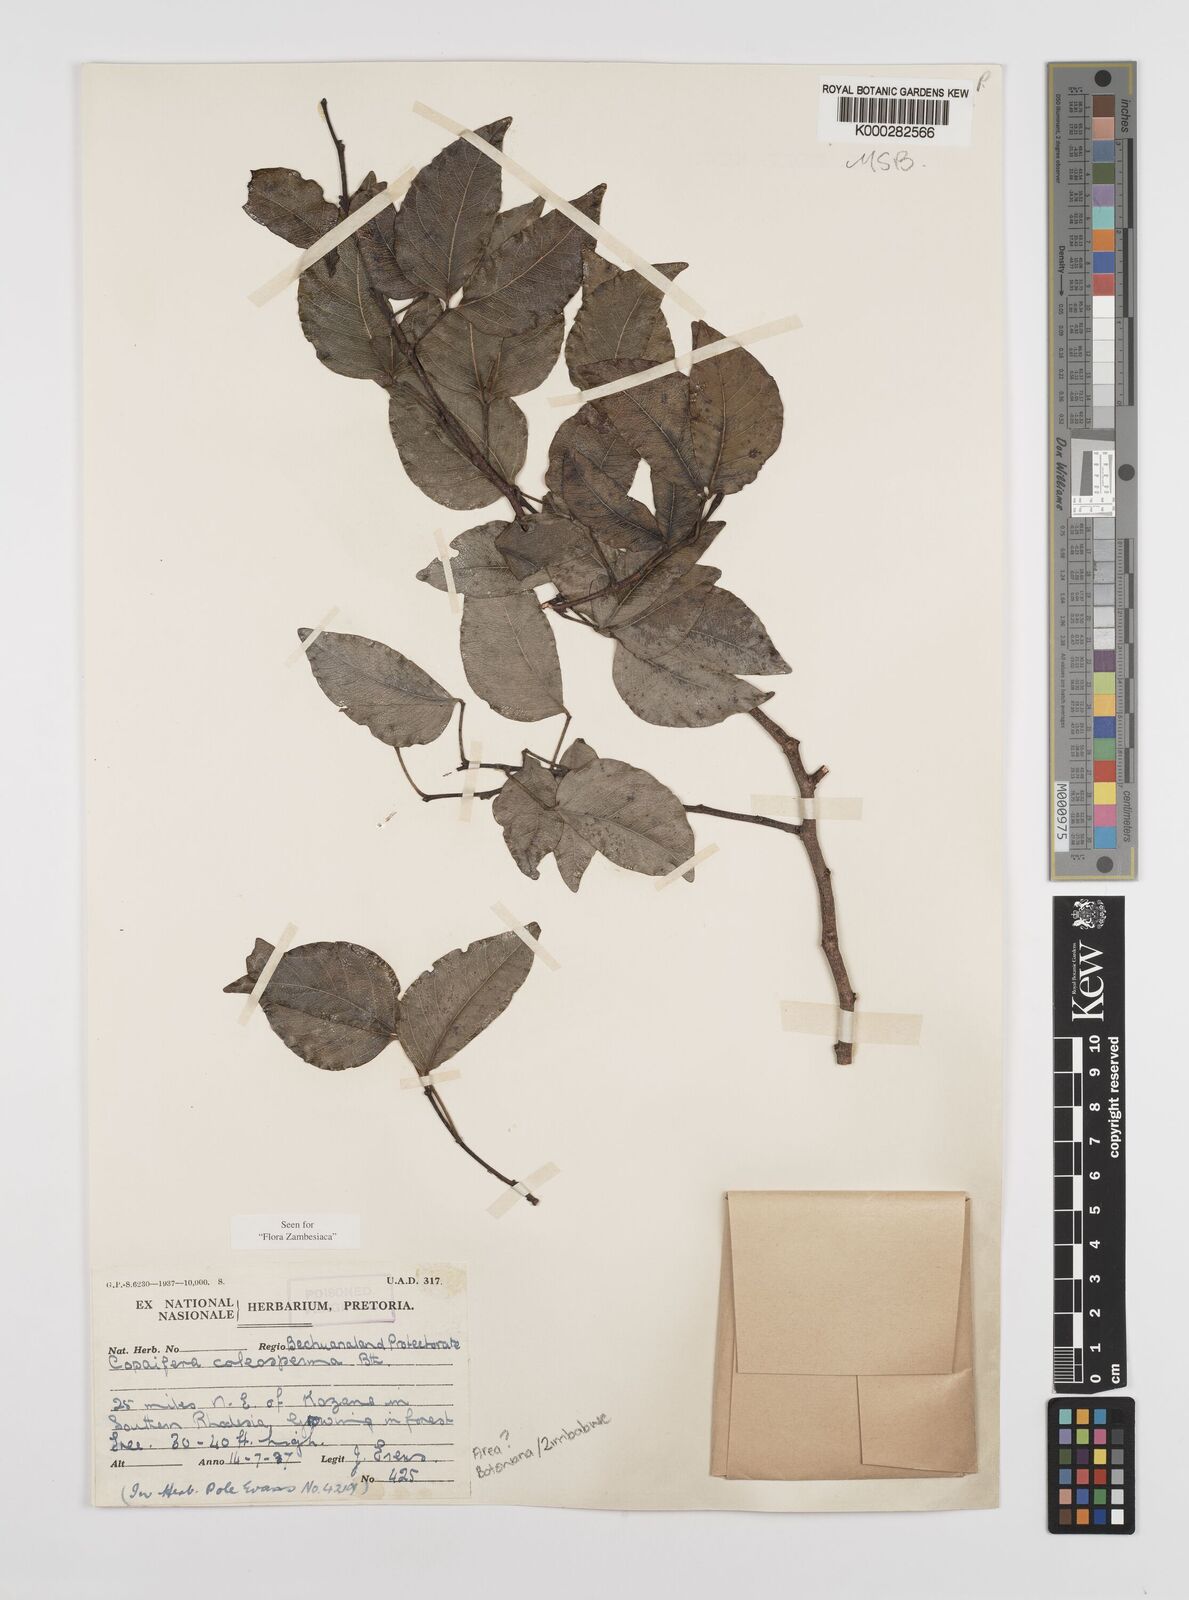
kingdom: Plantae
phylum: Tracheophyta
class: Magnoliopsida
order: Fabales
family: Fabaceae
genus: Guibourtia
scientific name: Guibourtia coleosperma
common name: African rosewoood
